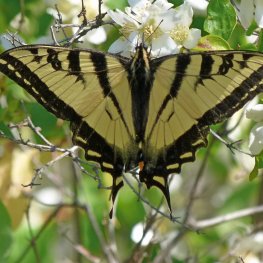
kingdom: Animalia
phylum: Arthropoda
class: Insecta
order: Lepidoptera
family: Papilionidae
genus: Pterourus
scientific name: Pterourus rutulus
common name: Western Tiger Swallowtail
